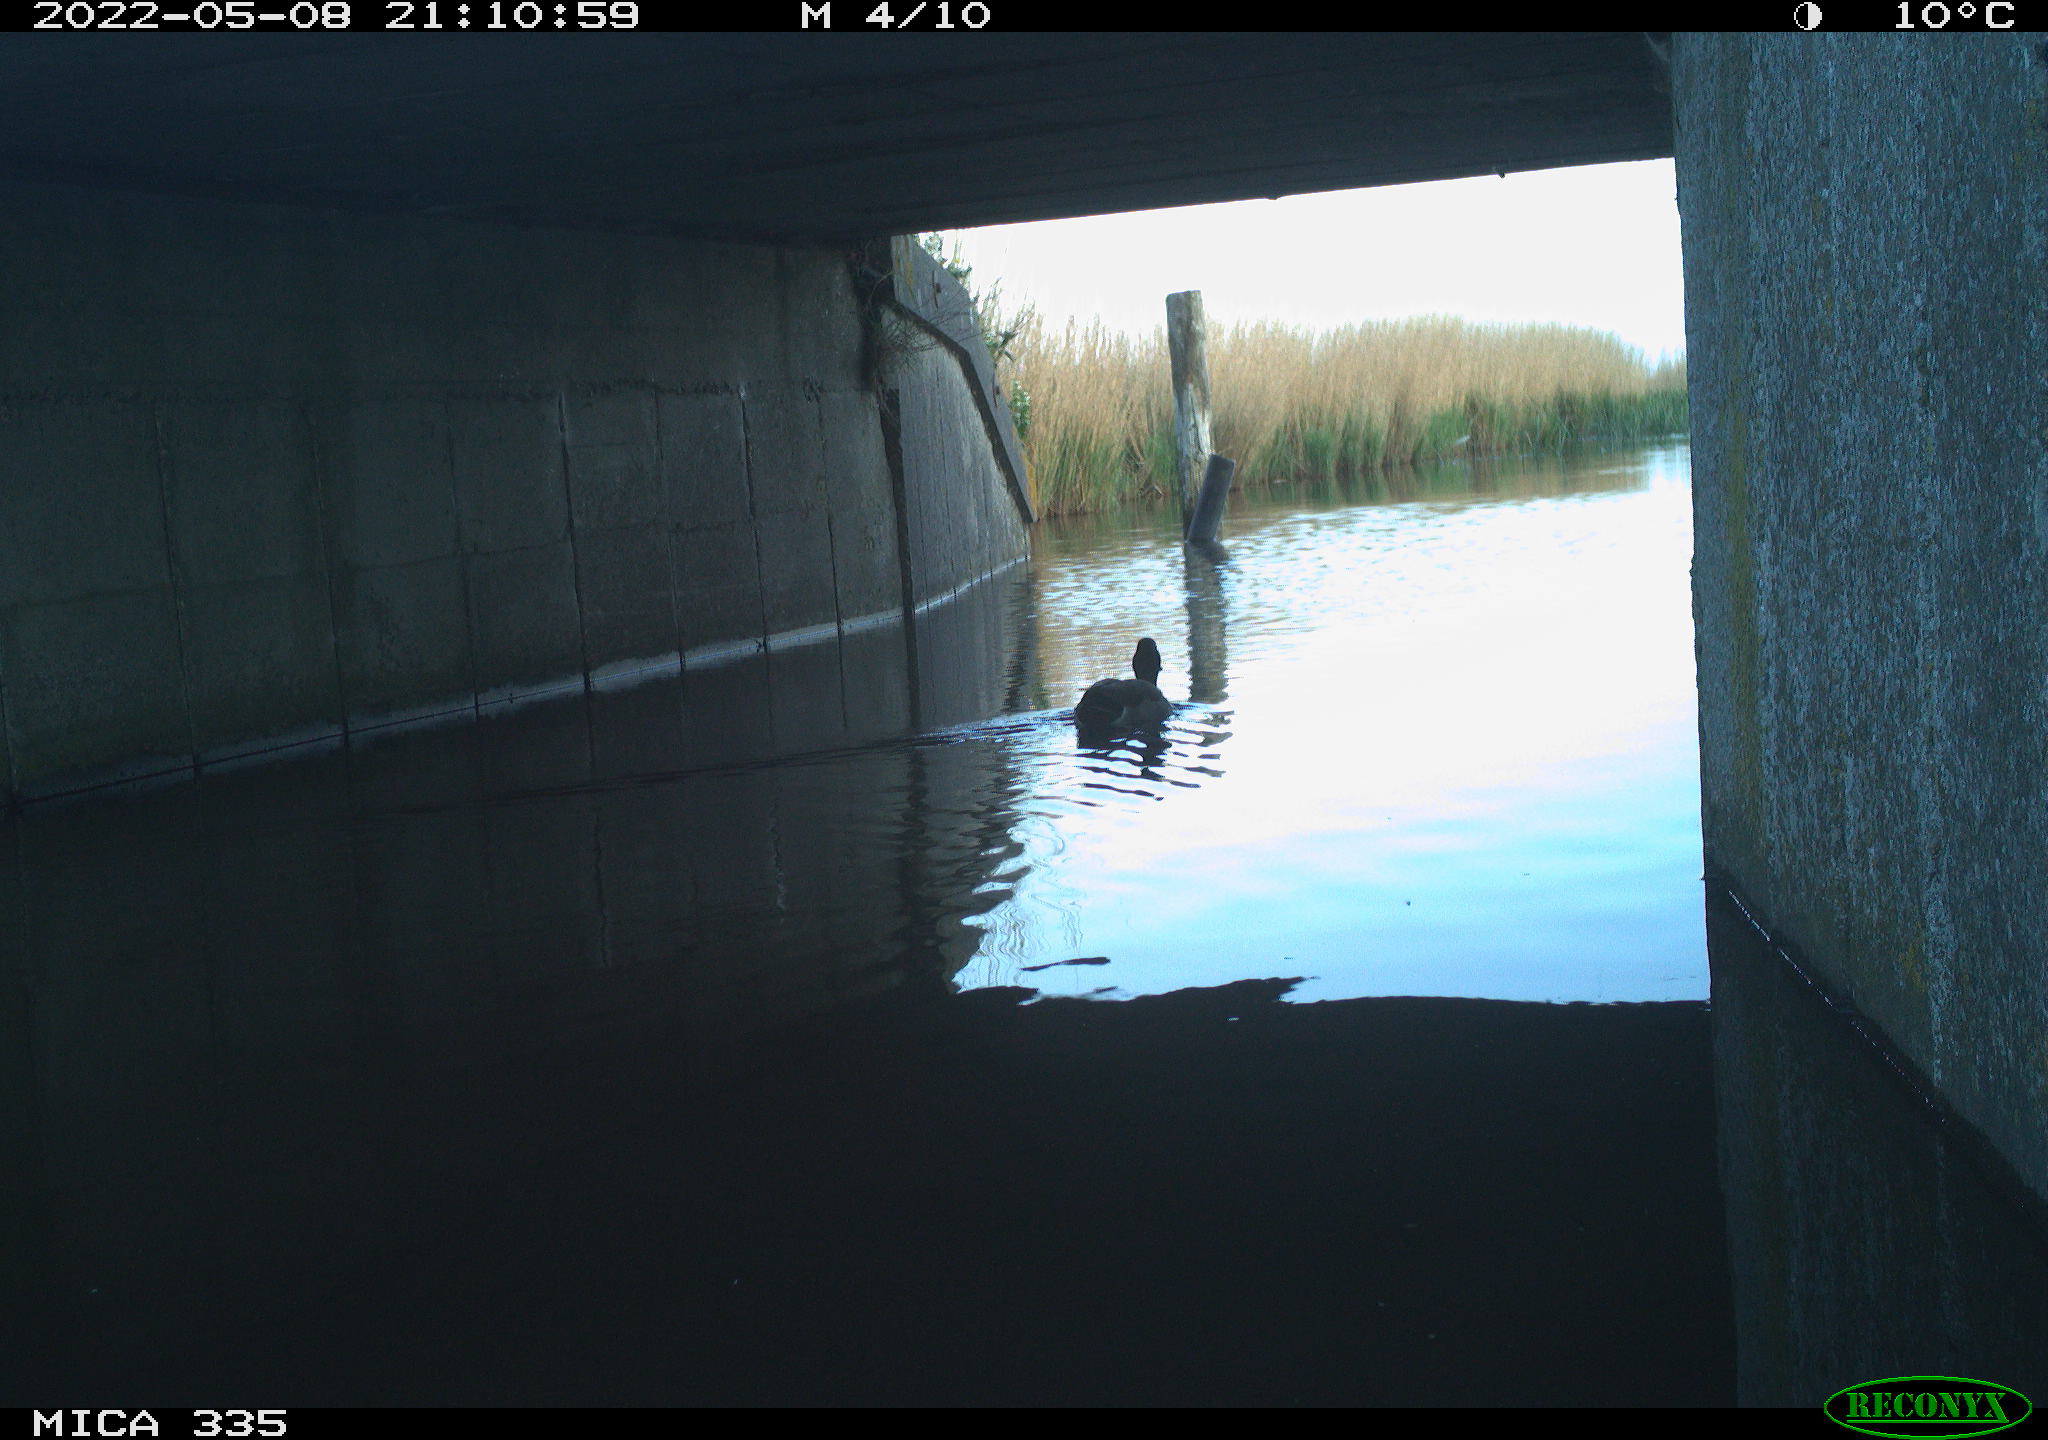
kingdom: Animalia
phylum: Chordata
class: Aves
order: Anseriformes
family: Anatidae
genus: Anas
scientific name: Anas platyrhynchos
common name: Mallard
